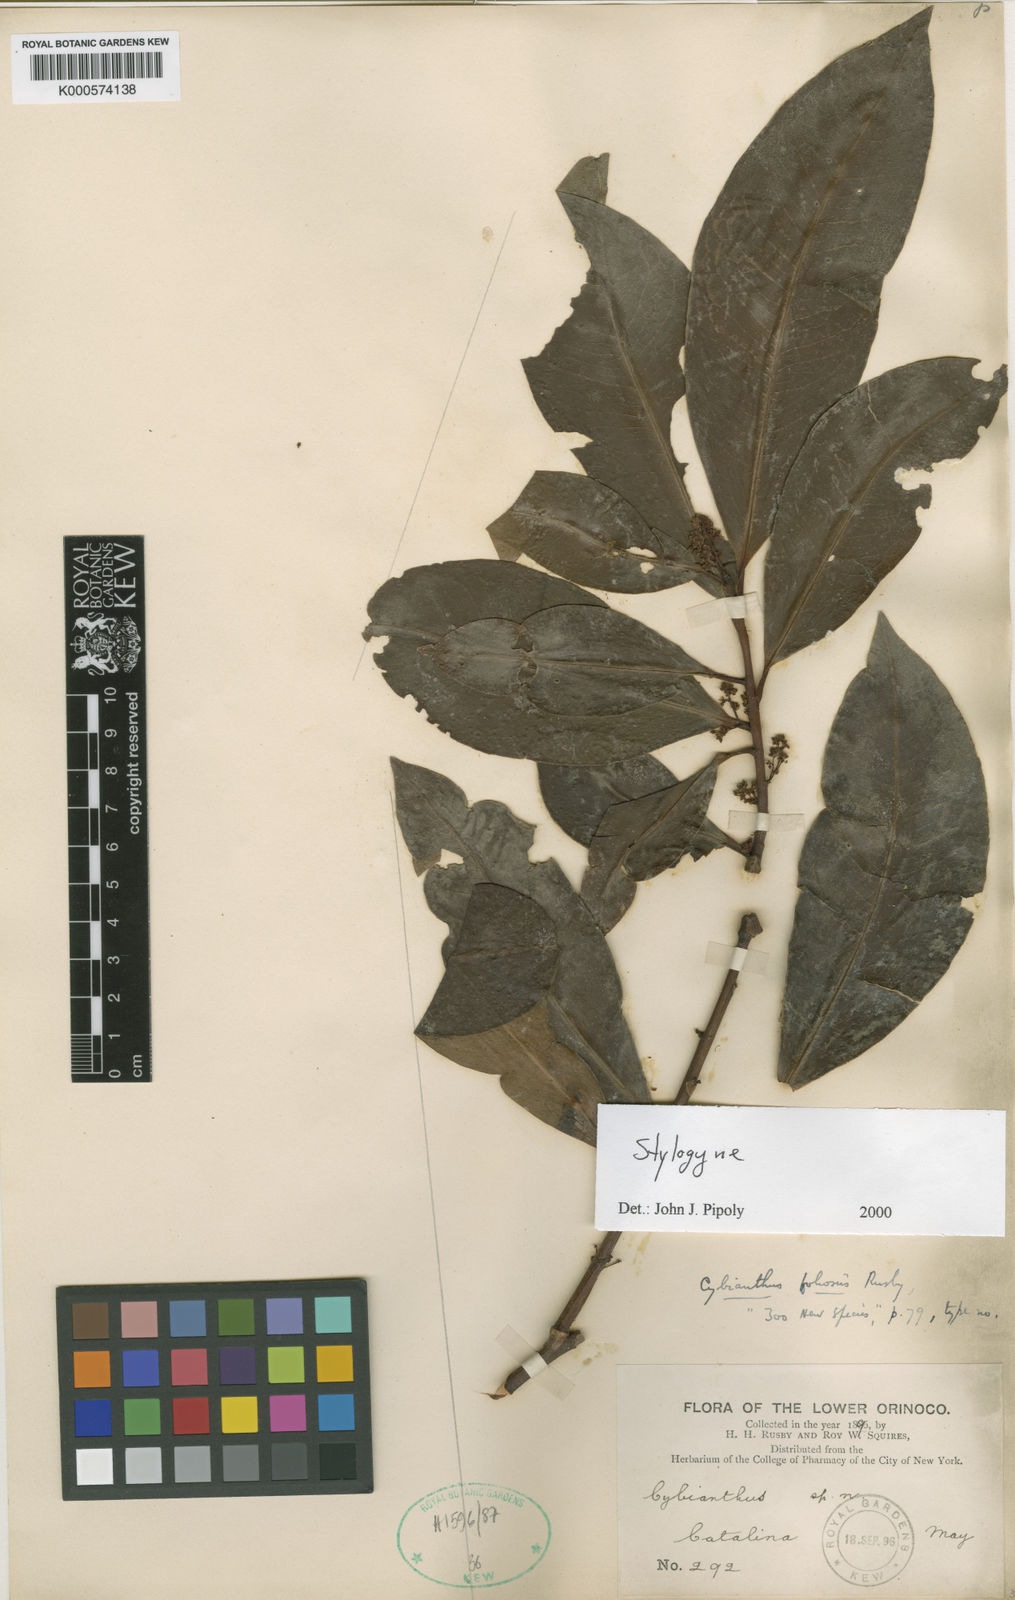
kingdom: Plantae
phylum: Tracheophyta
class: Magnoliopsida
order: Ericales
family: Primulaceae
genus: Stylogyne
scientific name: Stylogyne micrantha
